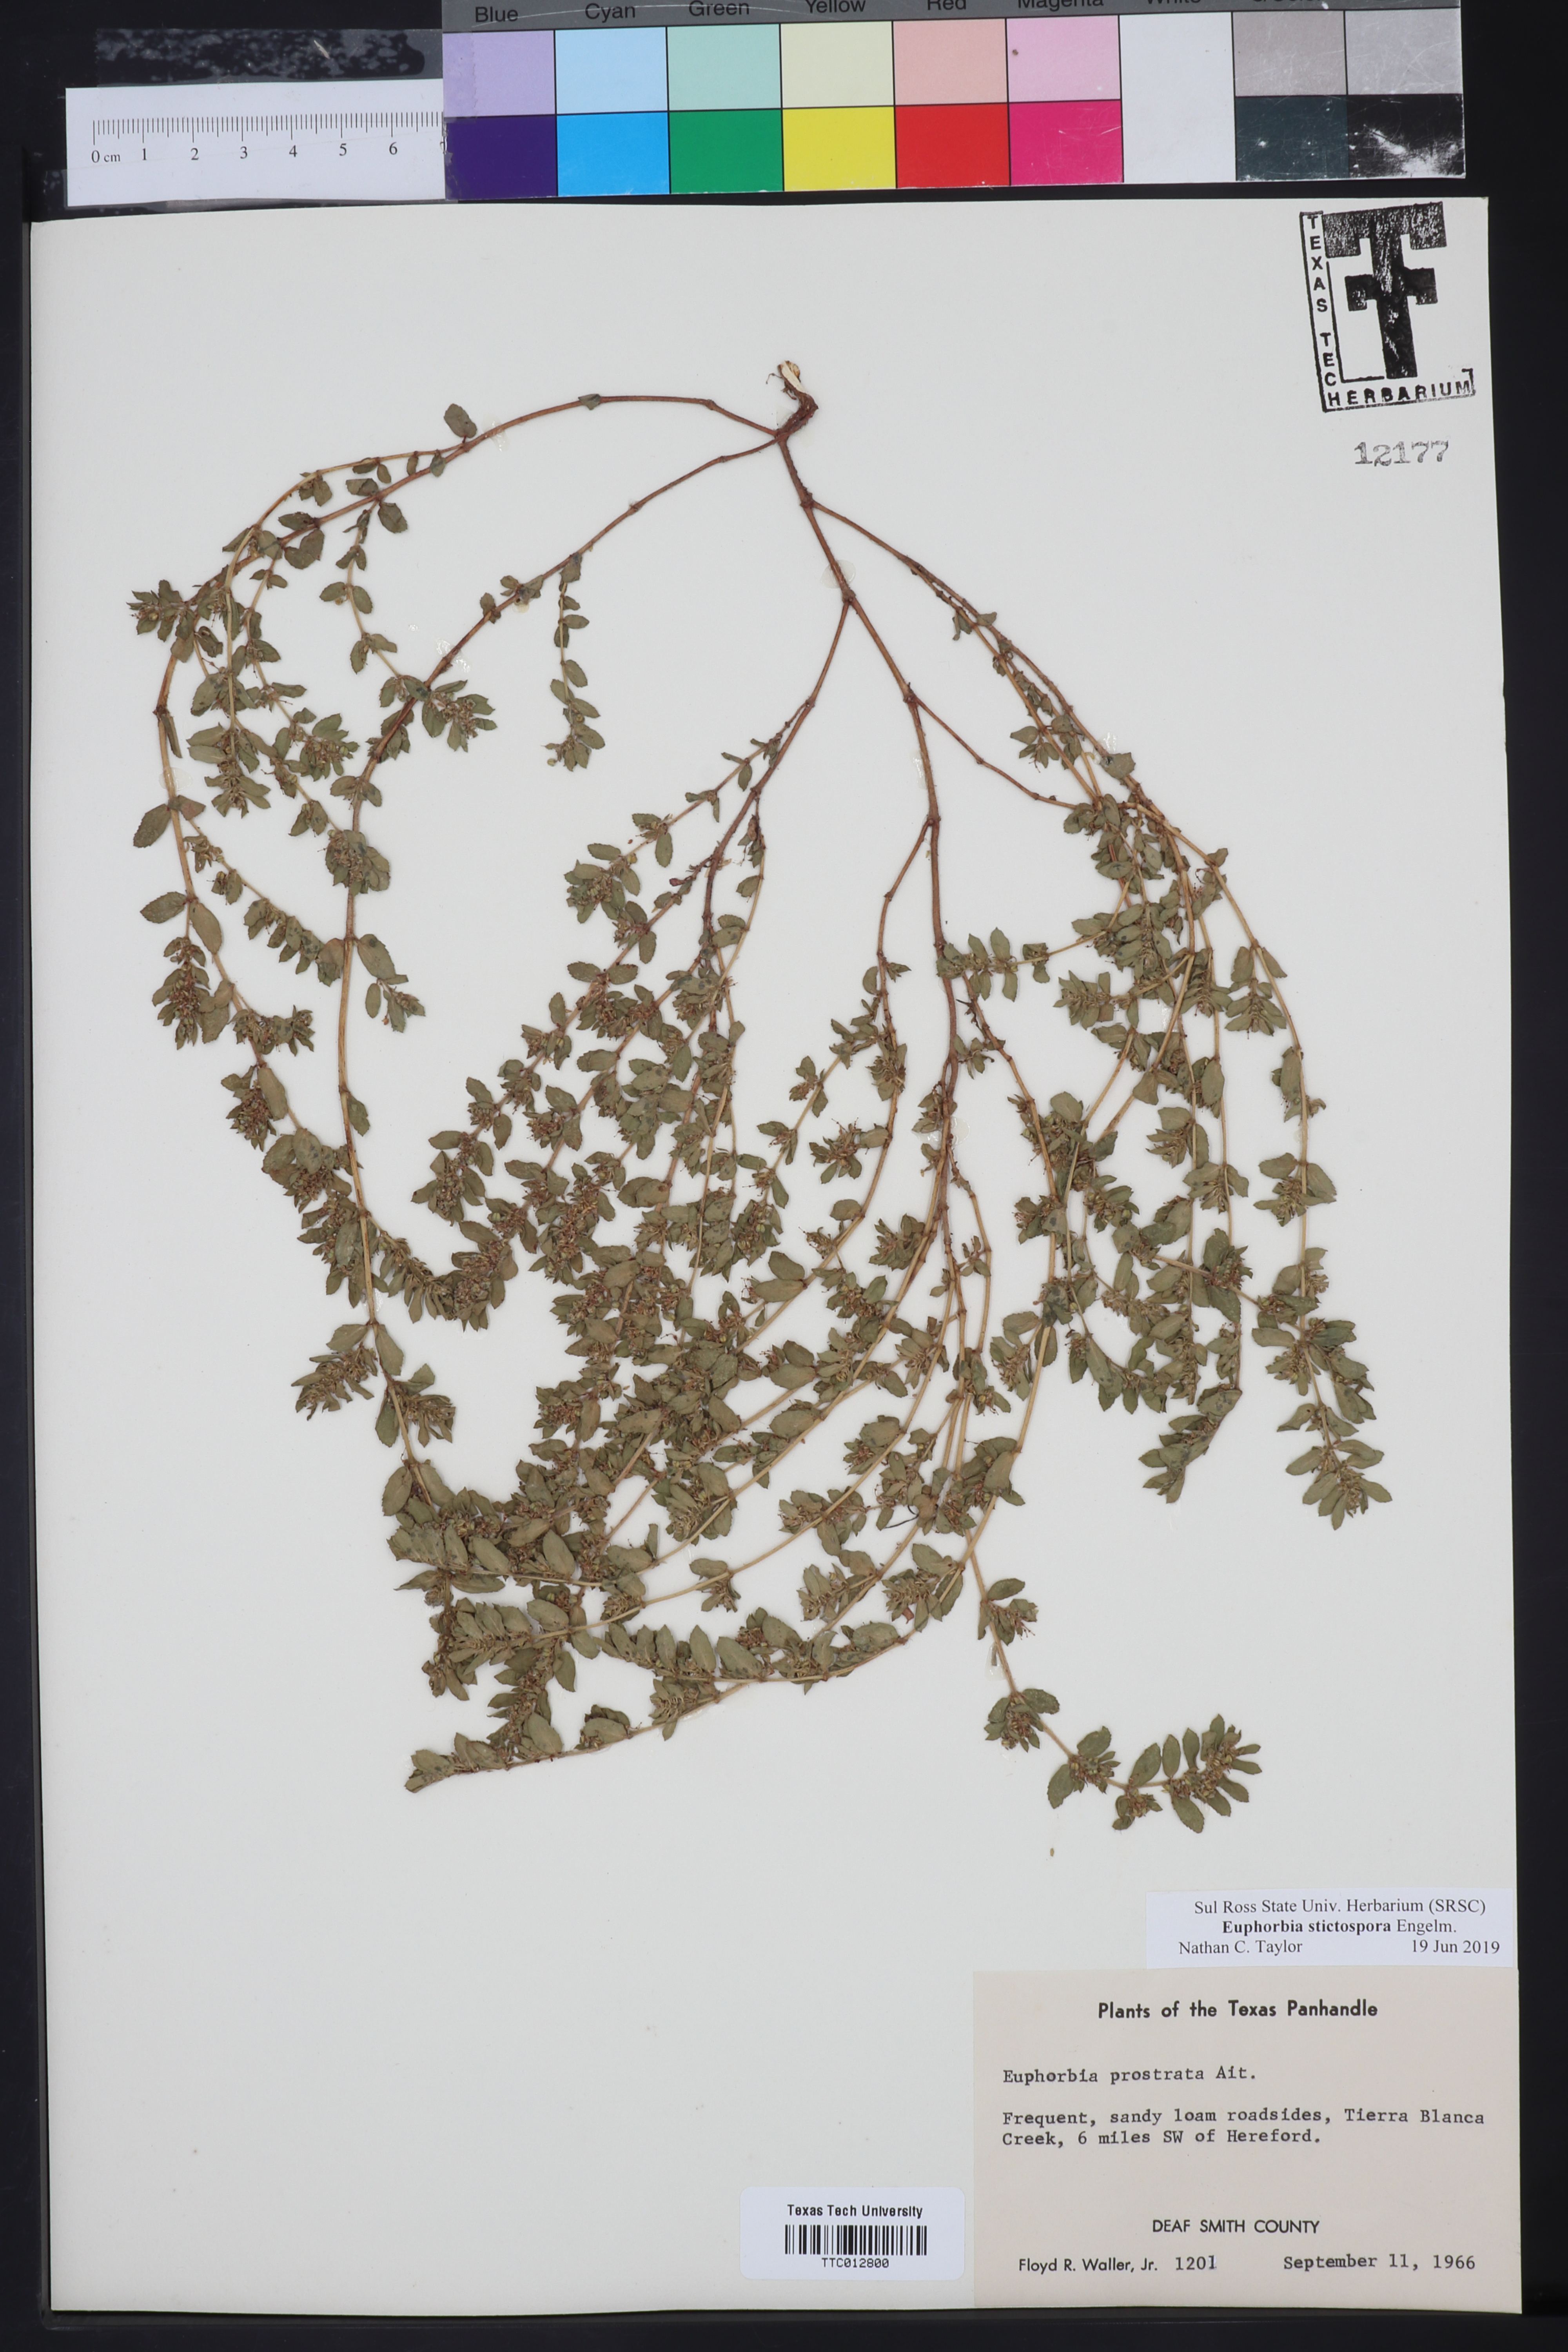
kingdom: Plantae
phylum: Tracheophyta
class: Magnoliopsida
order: Malpighiales
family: Euphorbiaceae
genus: Euphorbia
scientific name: Euphorbia prostrata
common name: Prostrate sandmat
